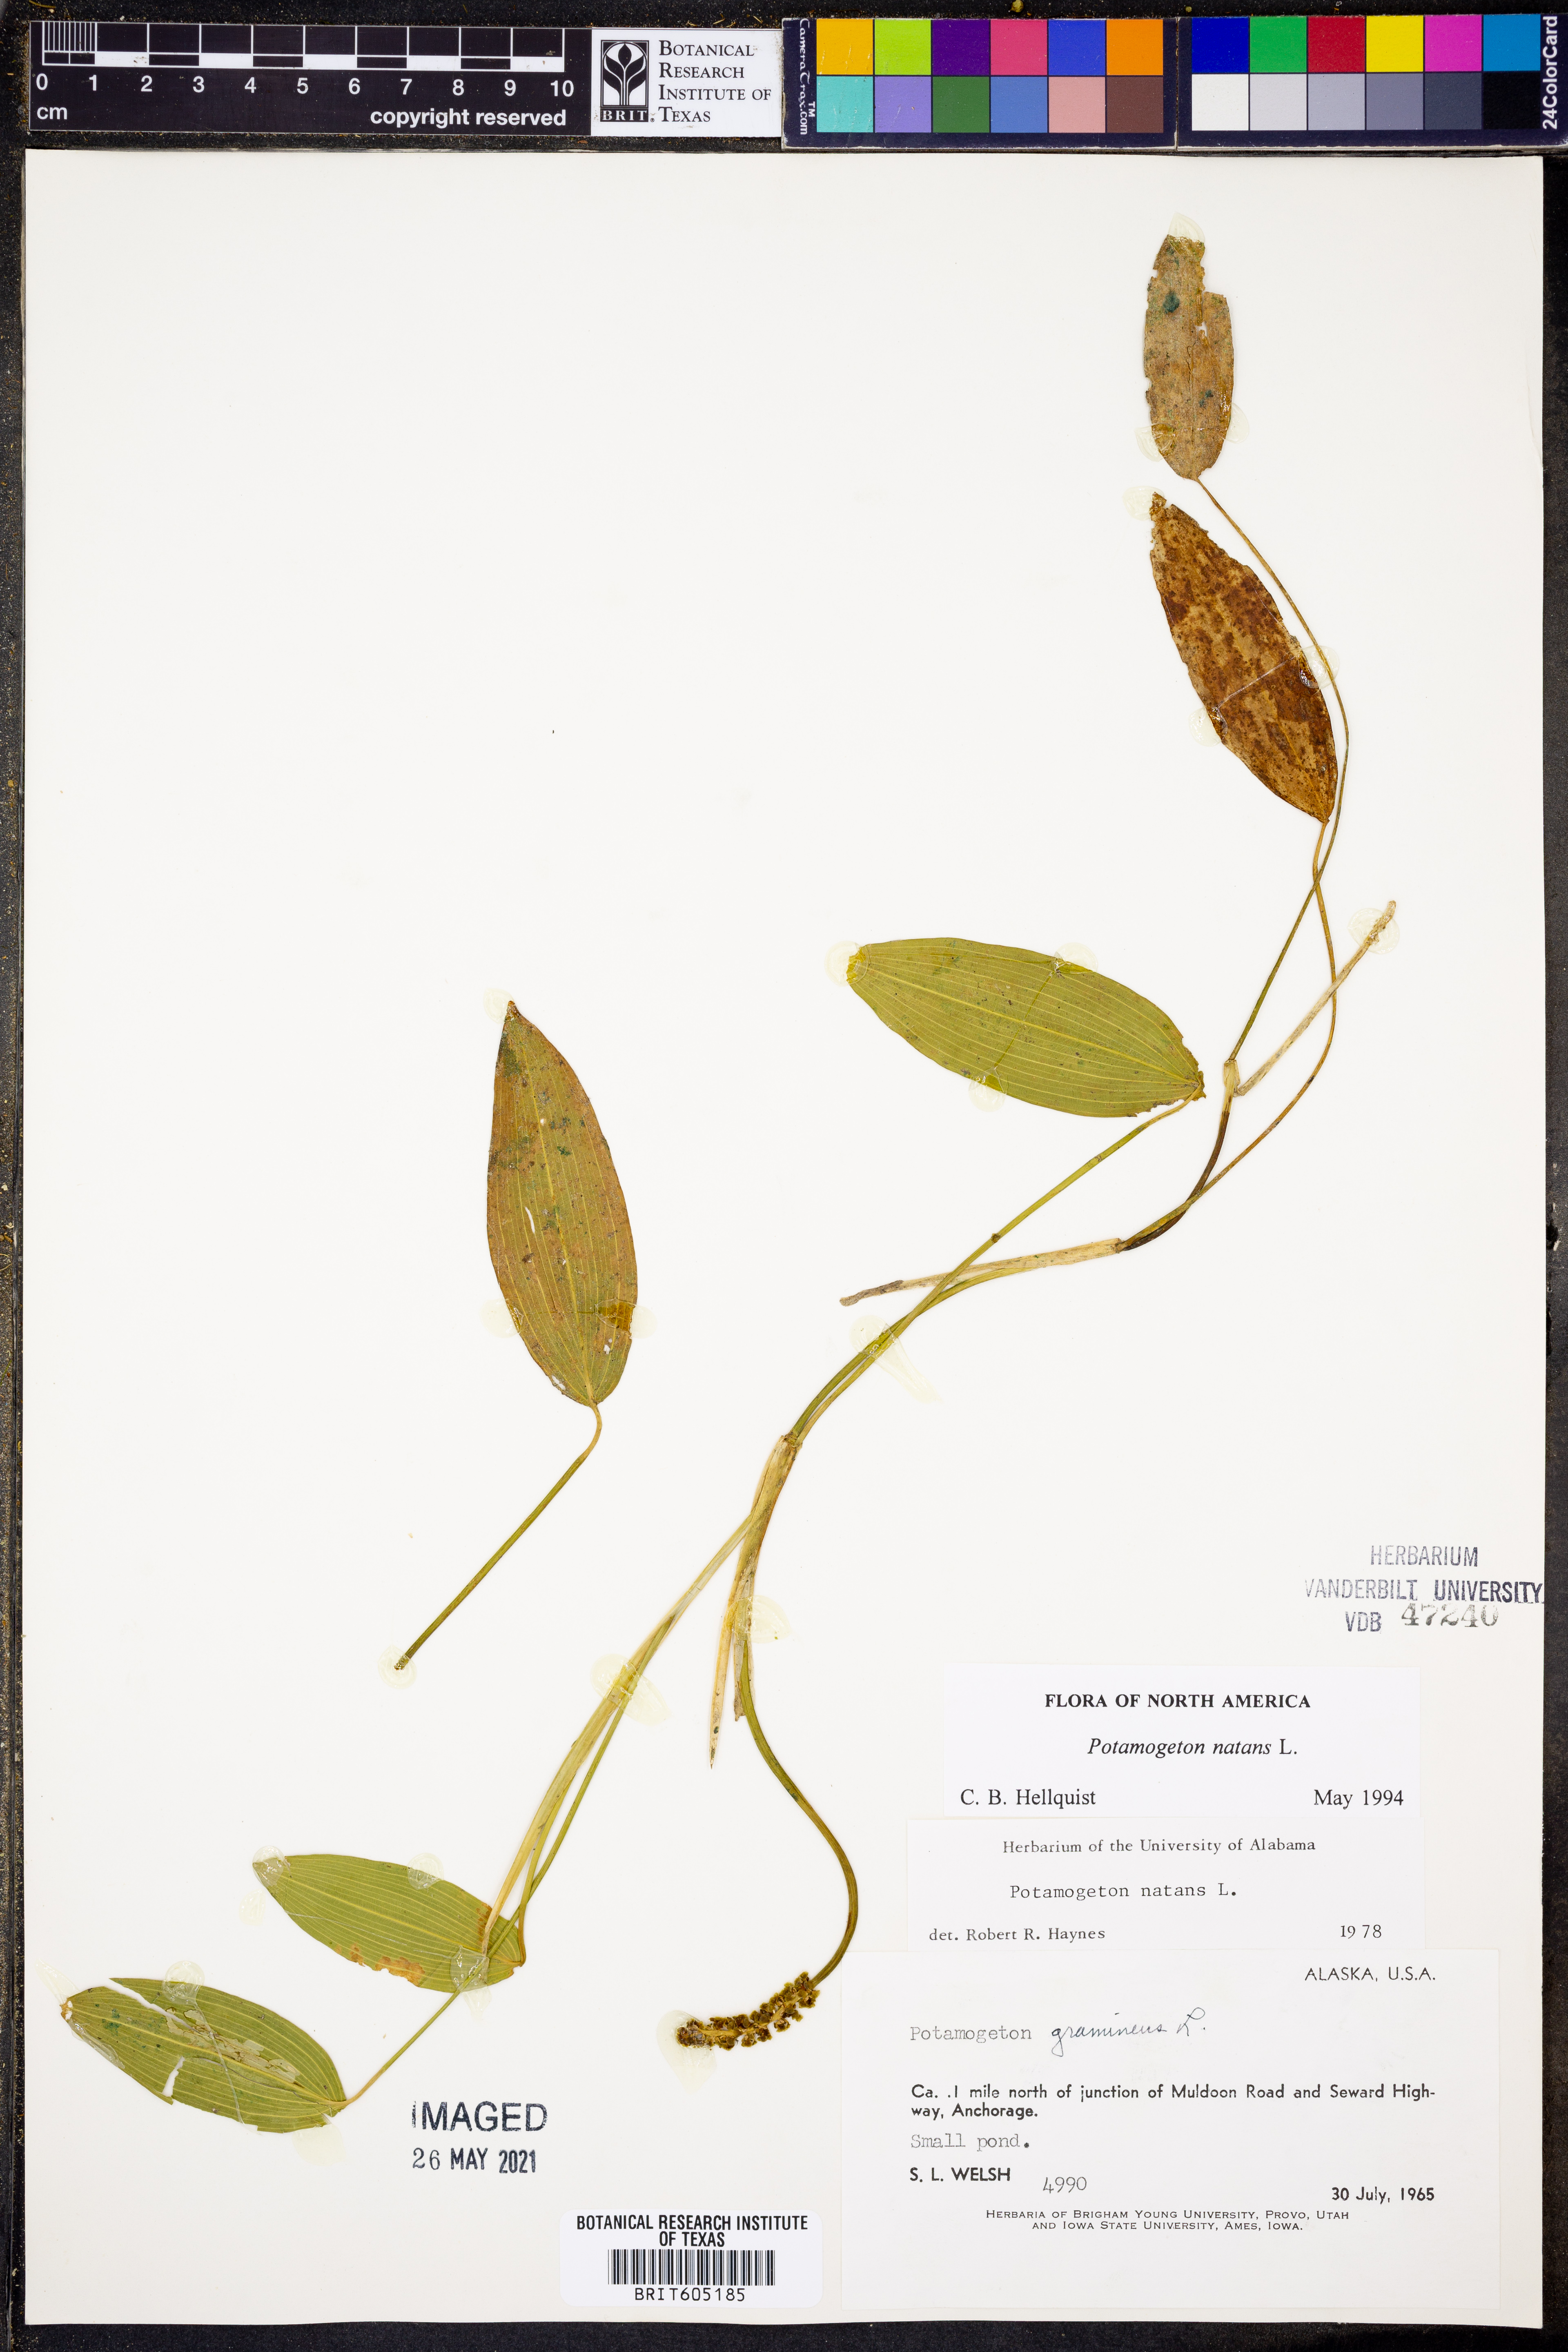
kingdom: Plantae
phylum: Tracheophyta
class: Liliopsida
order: Alismatales
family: Potamogetonaceae
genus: Potamogeton
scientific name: Potamogeton natans
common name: Broad-leaved pondweed
